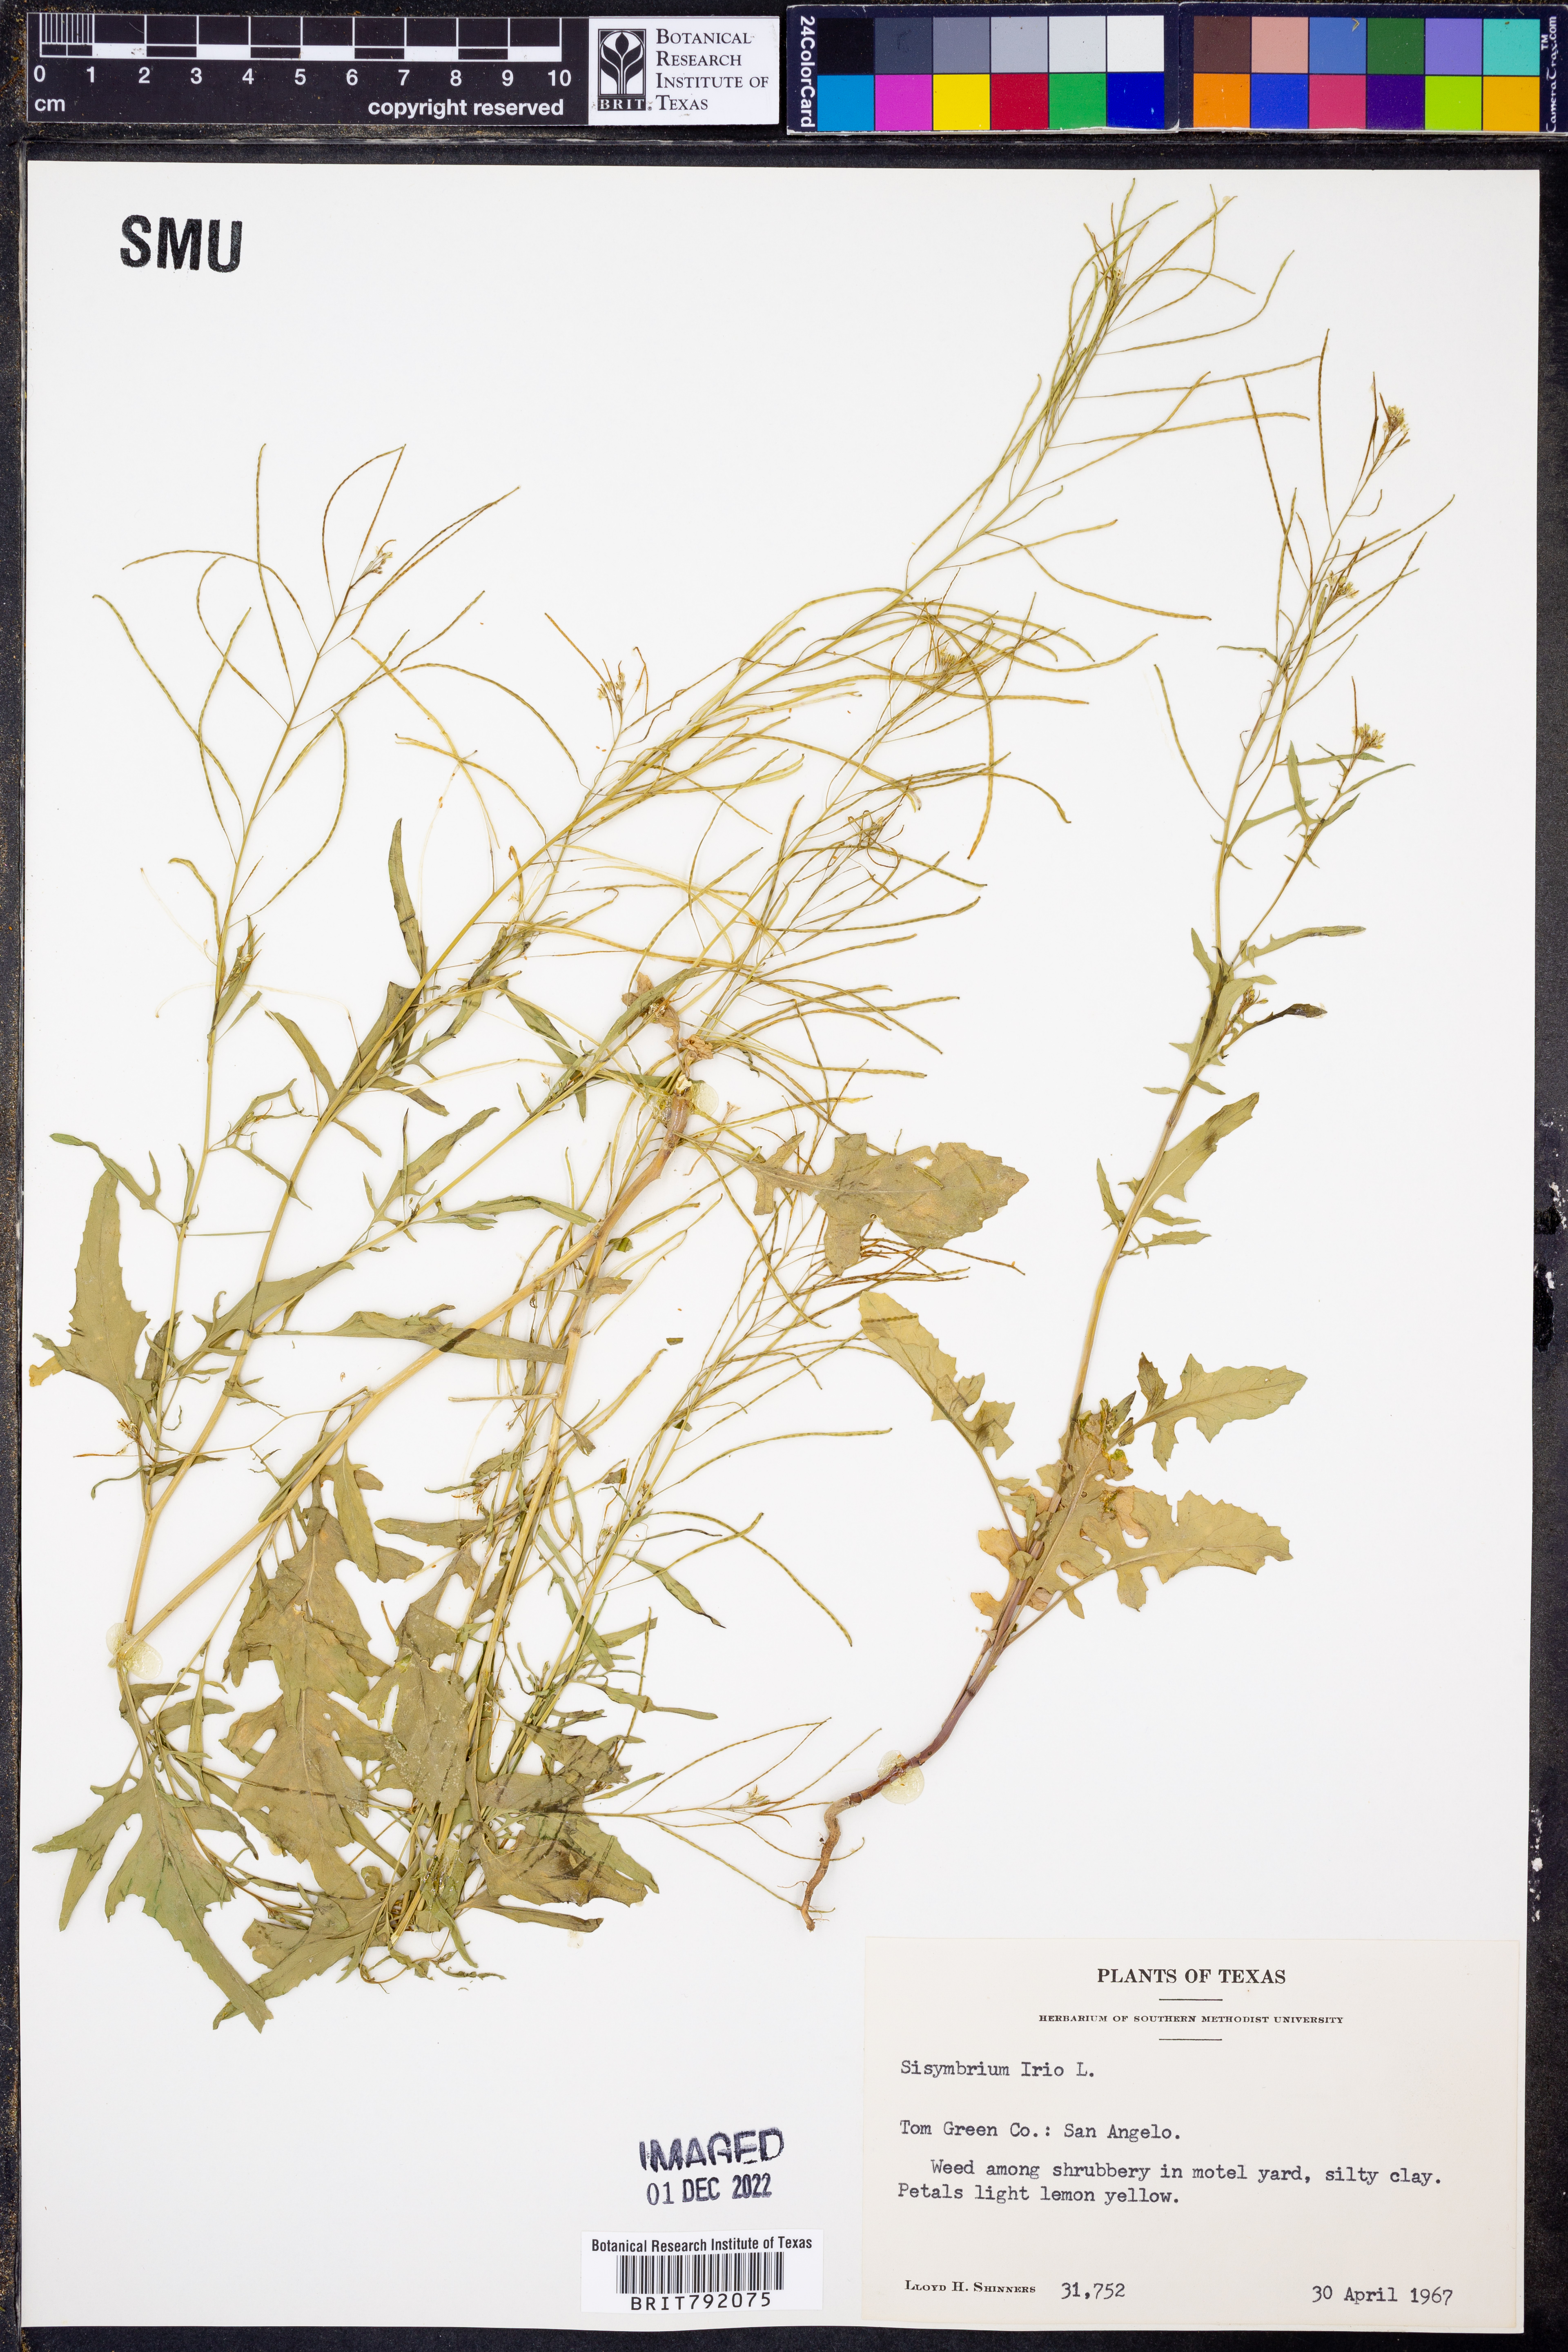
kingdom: Plantae
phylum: Tracheophyta
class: Magnoliopsida
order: Brassicales
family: Brassicaceae
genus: Sisymbrium
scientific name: Sisymbrium irio
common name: London rocket
